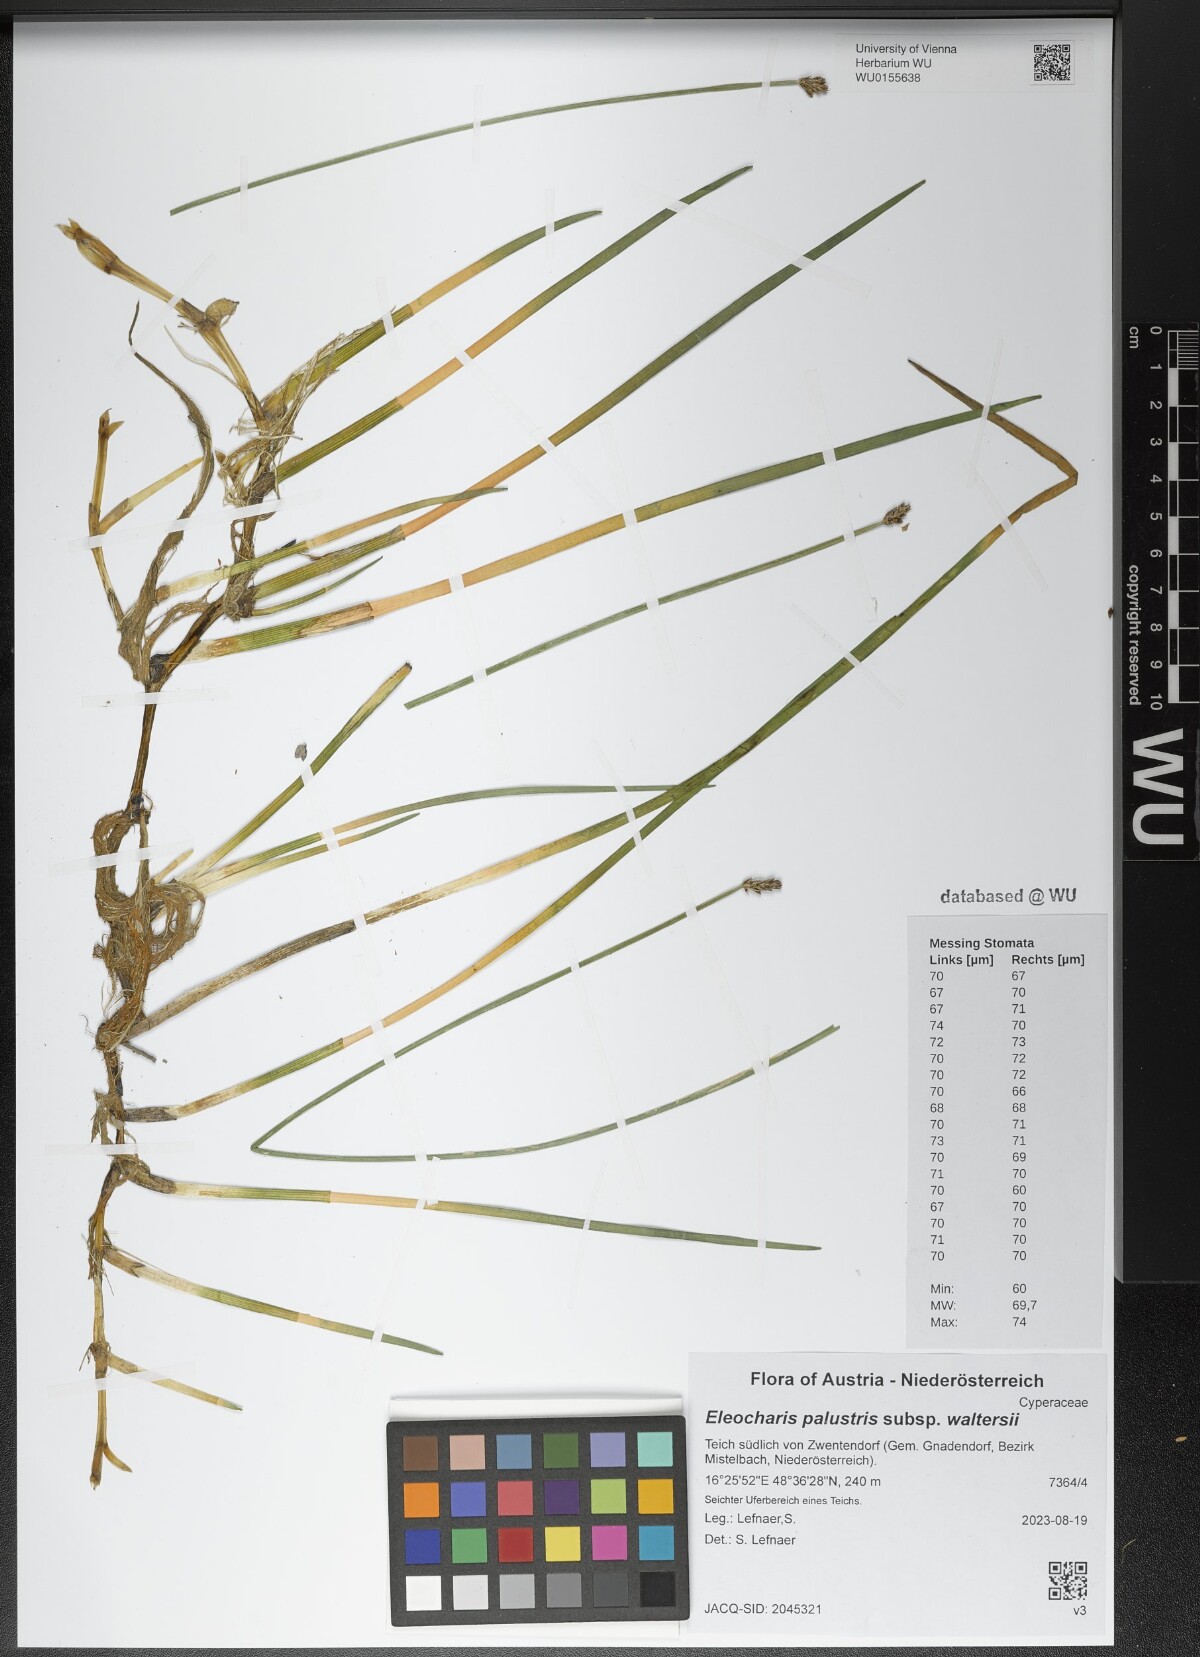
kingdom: Plantae
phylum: Tracheophyta
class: Liliopsida
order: Poales
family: Cyperaceae
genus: Eleocharis
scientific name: Eleocharis palustris
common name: Common spike-rush
